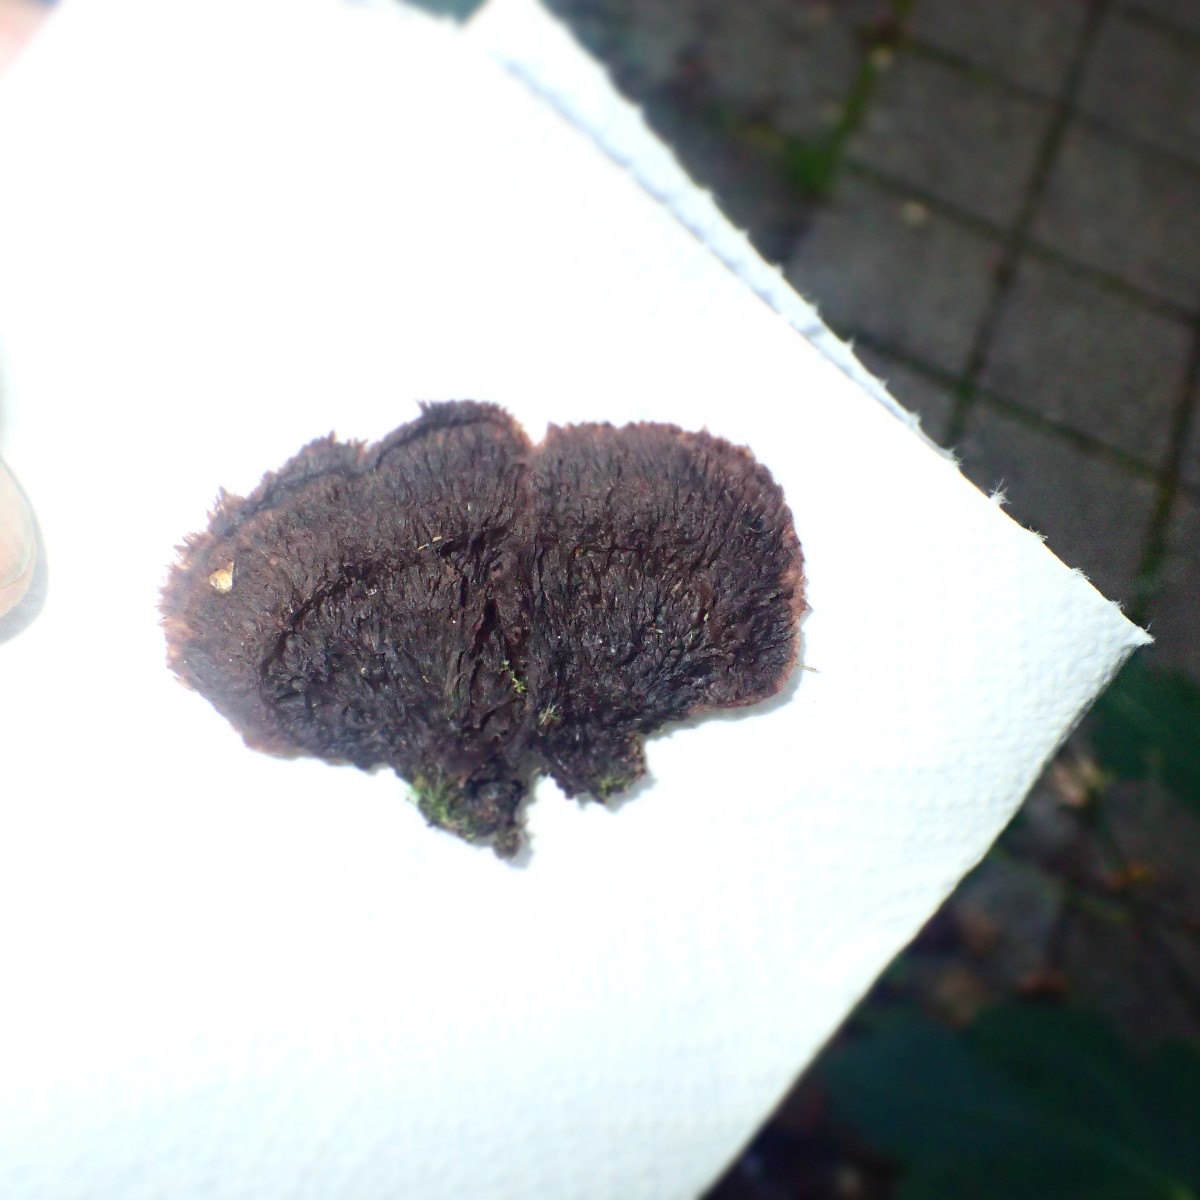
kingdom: Fungi
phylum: Basidiomycota
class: Agaricomycetes
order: Thelephorales
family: Thelephoraceae
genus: Thelephora
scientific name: Thelephora terrestris
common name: fliget frynsesvamp
